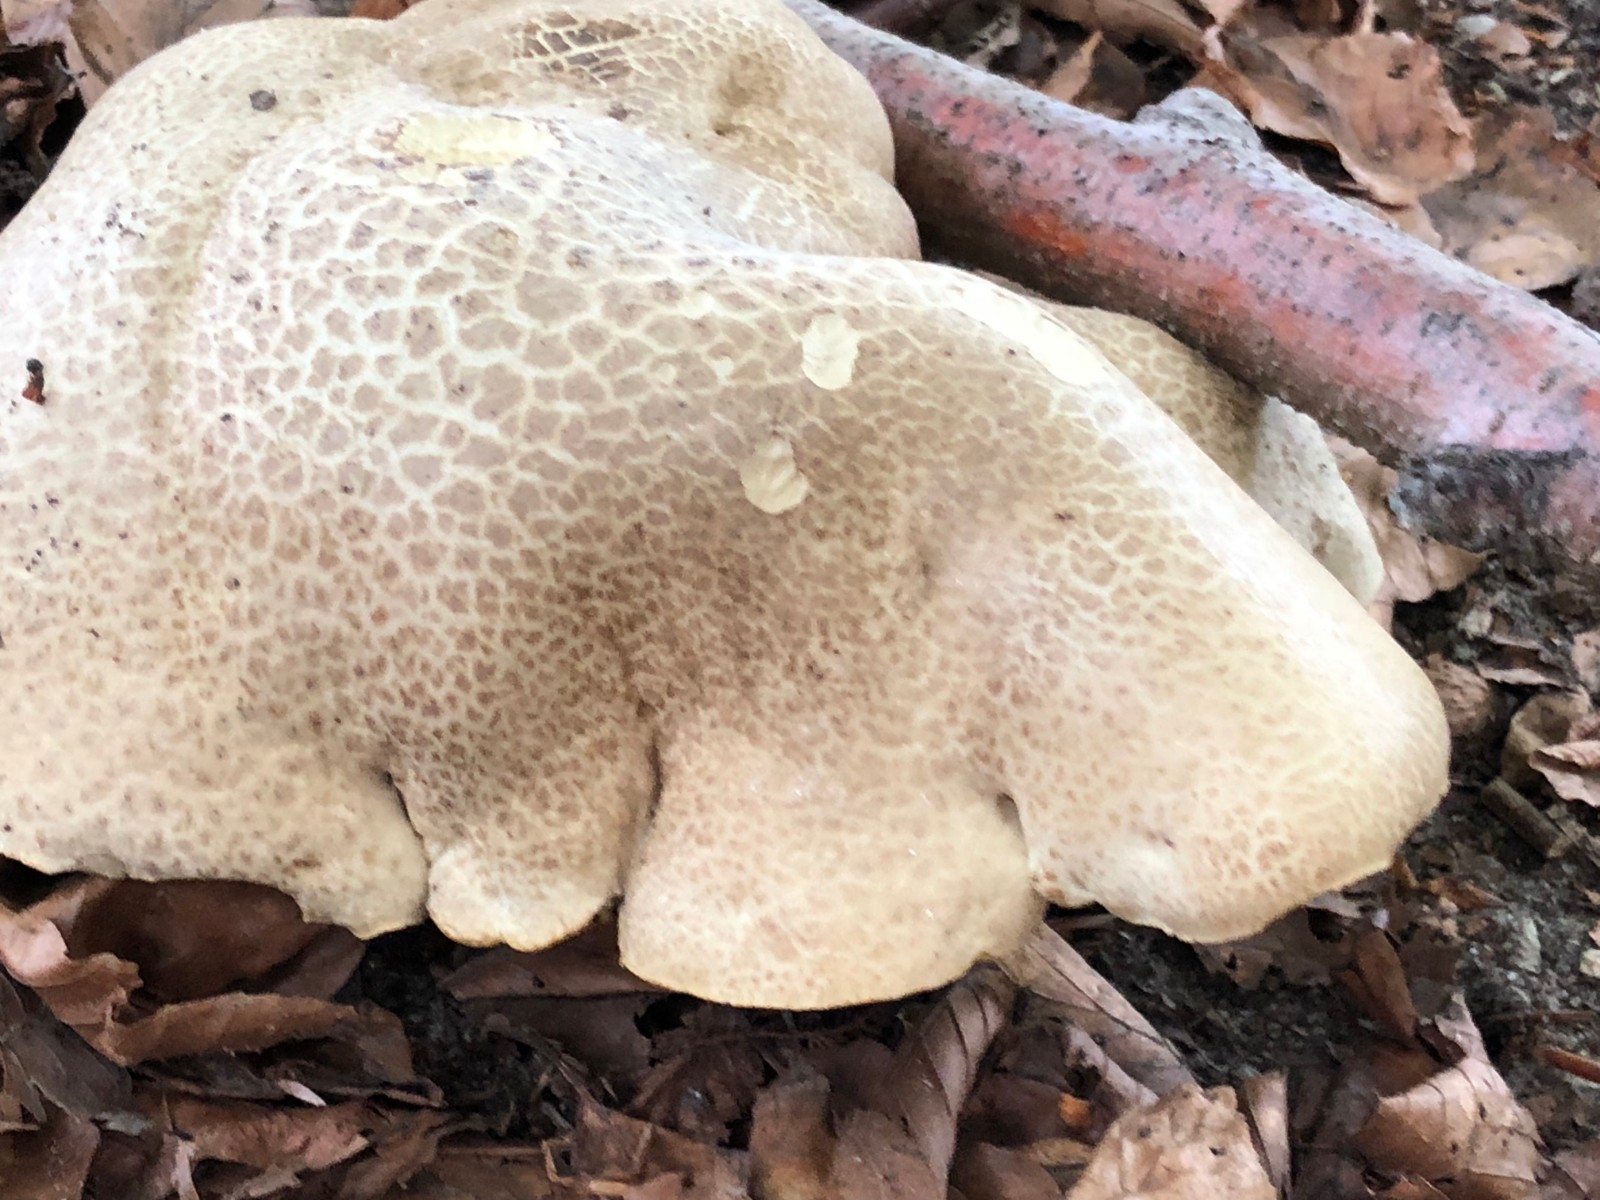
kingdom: Fungi
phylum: Basidiomycota
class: Agaricomycetes
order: Boletales
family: Boletaceae
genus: Caloboletus
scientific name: Caloboletus radicans
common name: rod-rørhat
